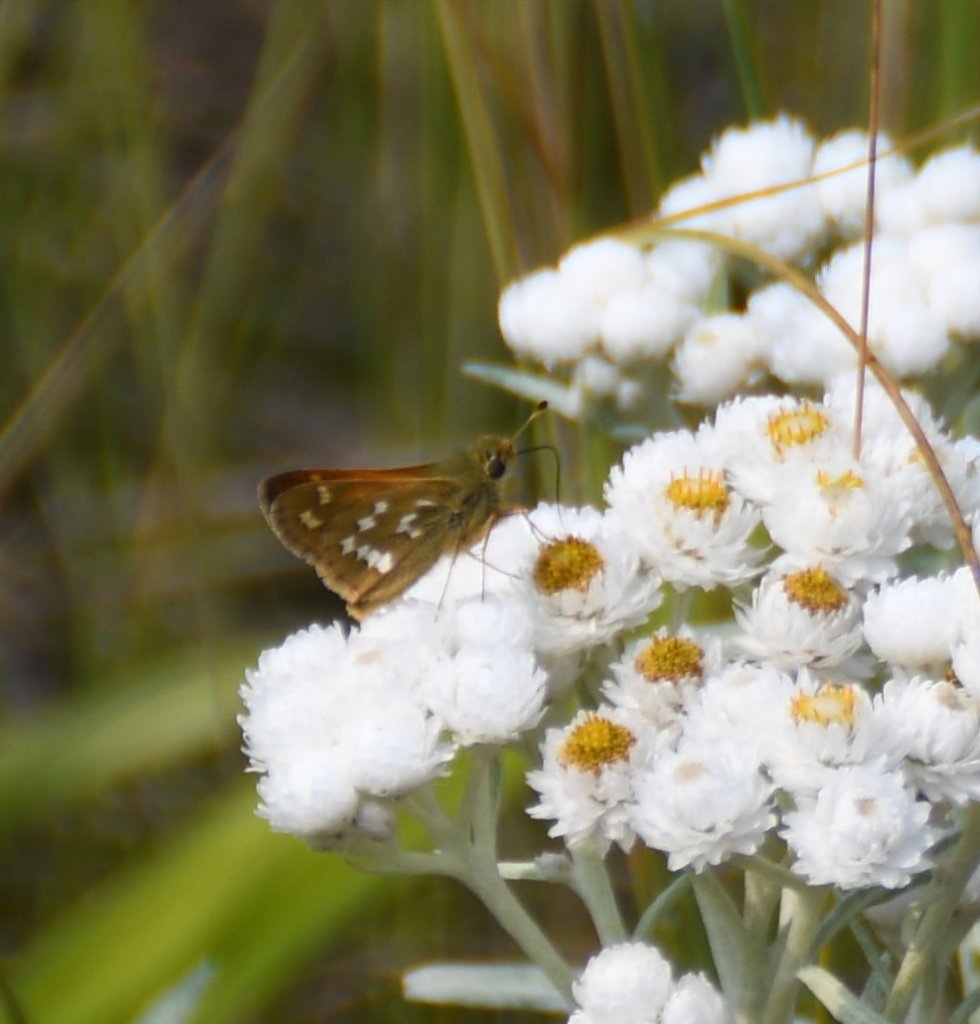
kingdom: Animalia
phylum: Arthropoda
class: Insecta
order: Lepidoptera
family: Hesperiidae
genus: Hesperia
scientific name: Hesperia comma
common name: Common Branded Skipper
